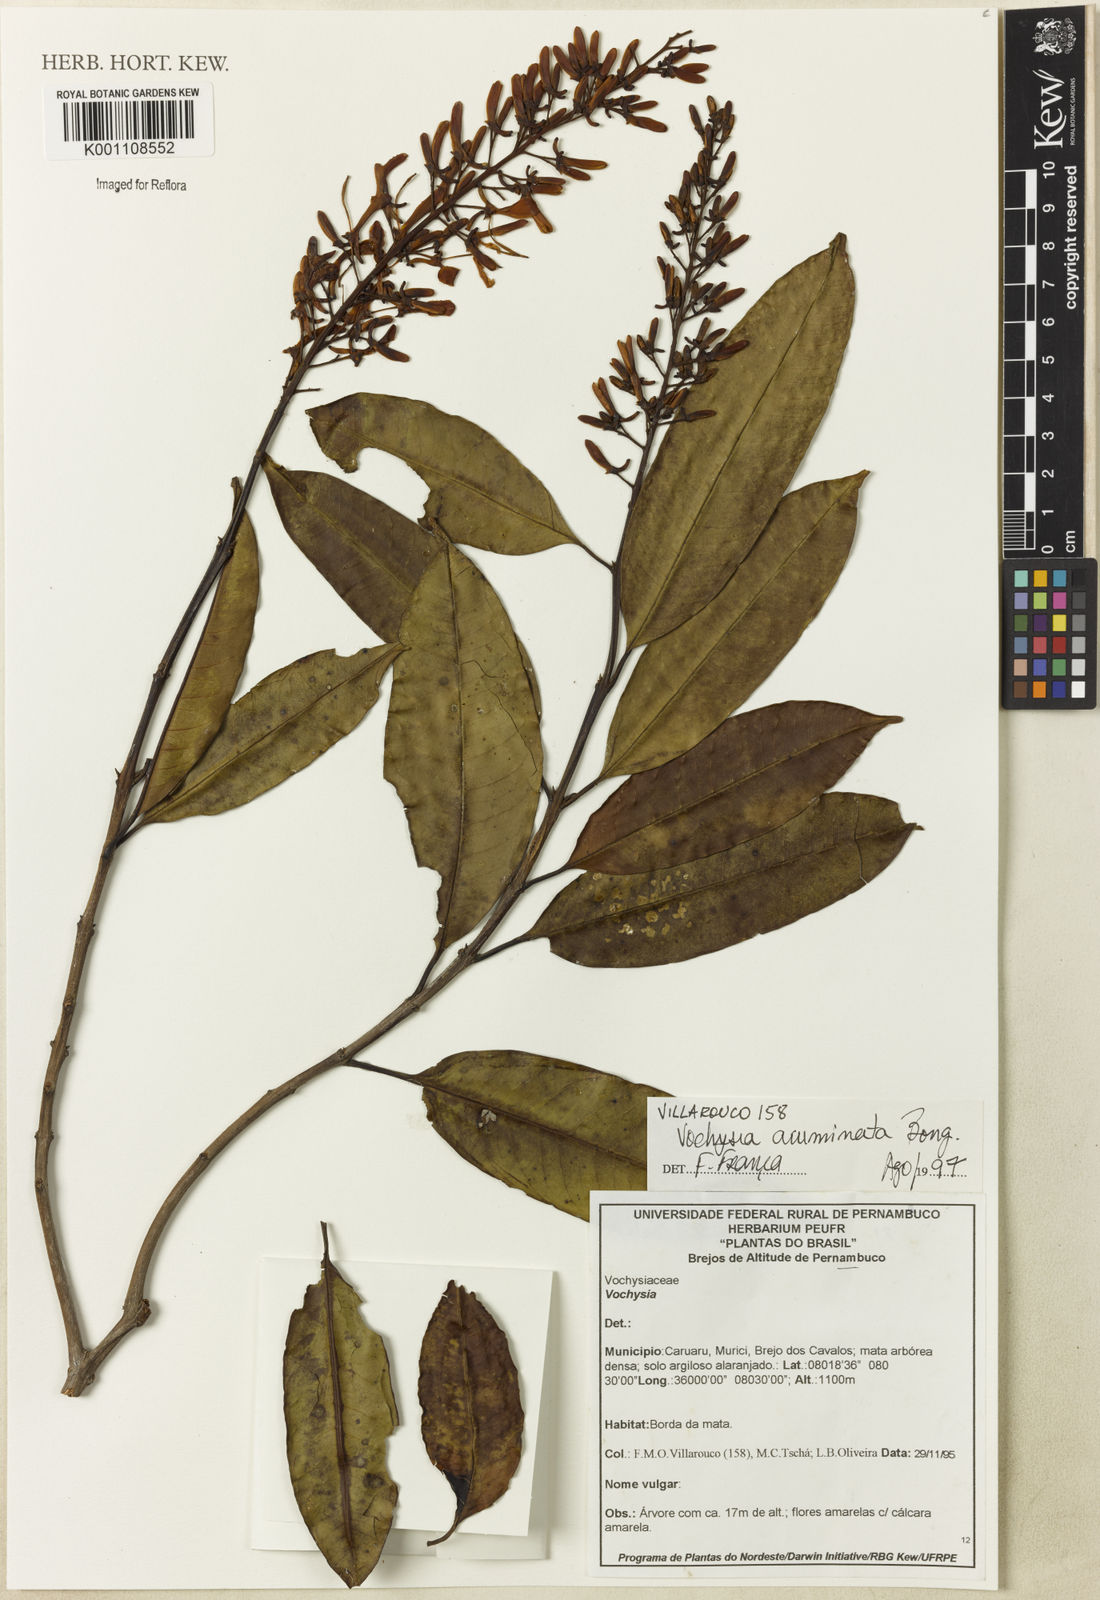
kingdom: Plantae
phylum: Tracheophyta
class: Magnoliopsida
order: Myrtales
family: Vochysiaceae
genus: Vochysia
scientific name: Vochysia acuminata
